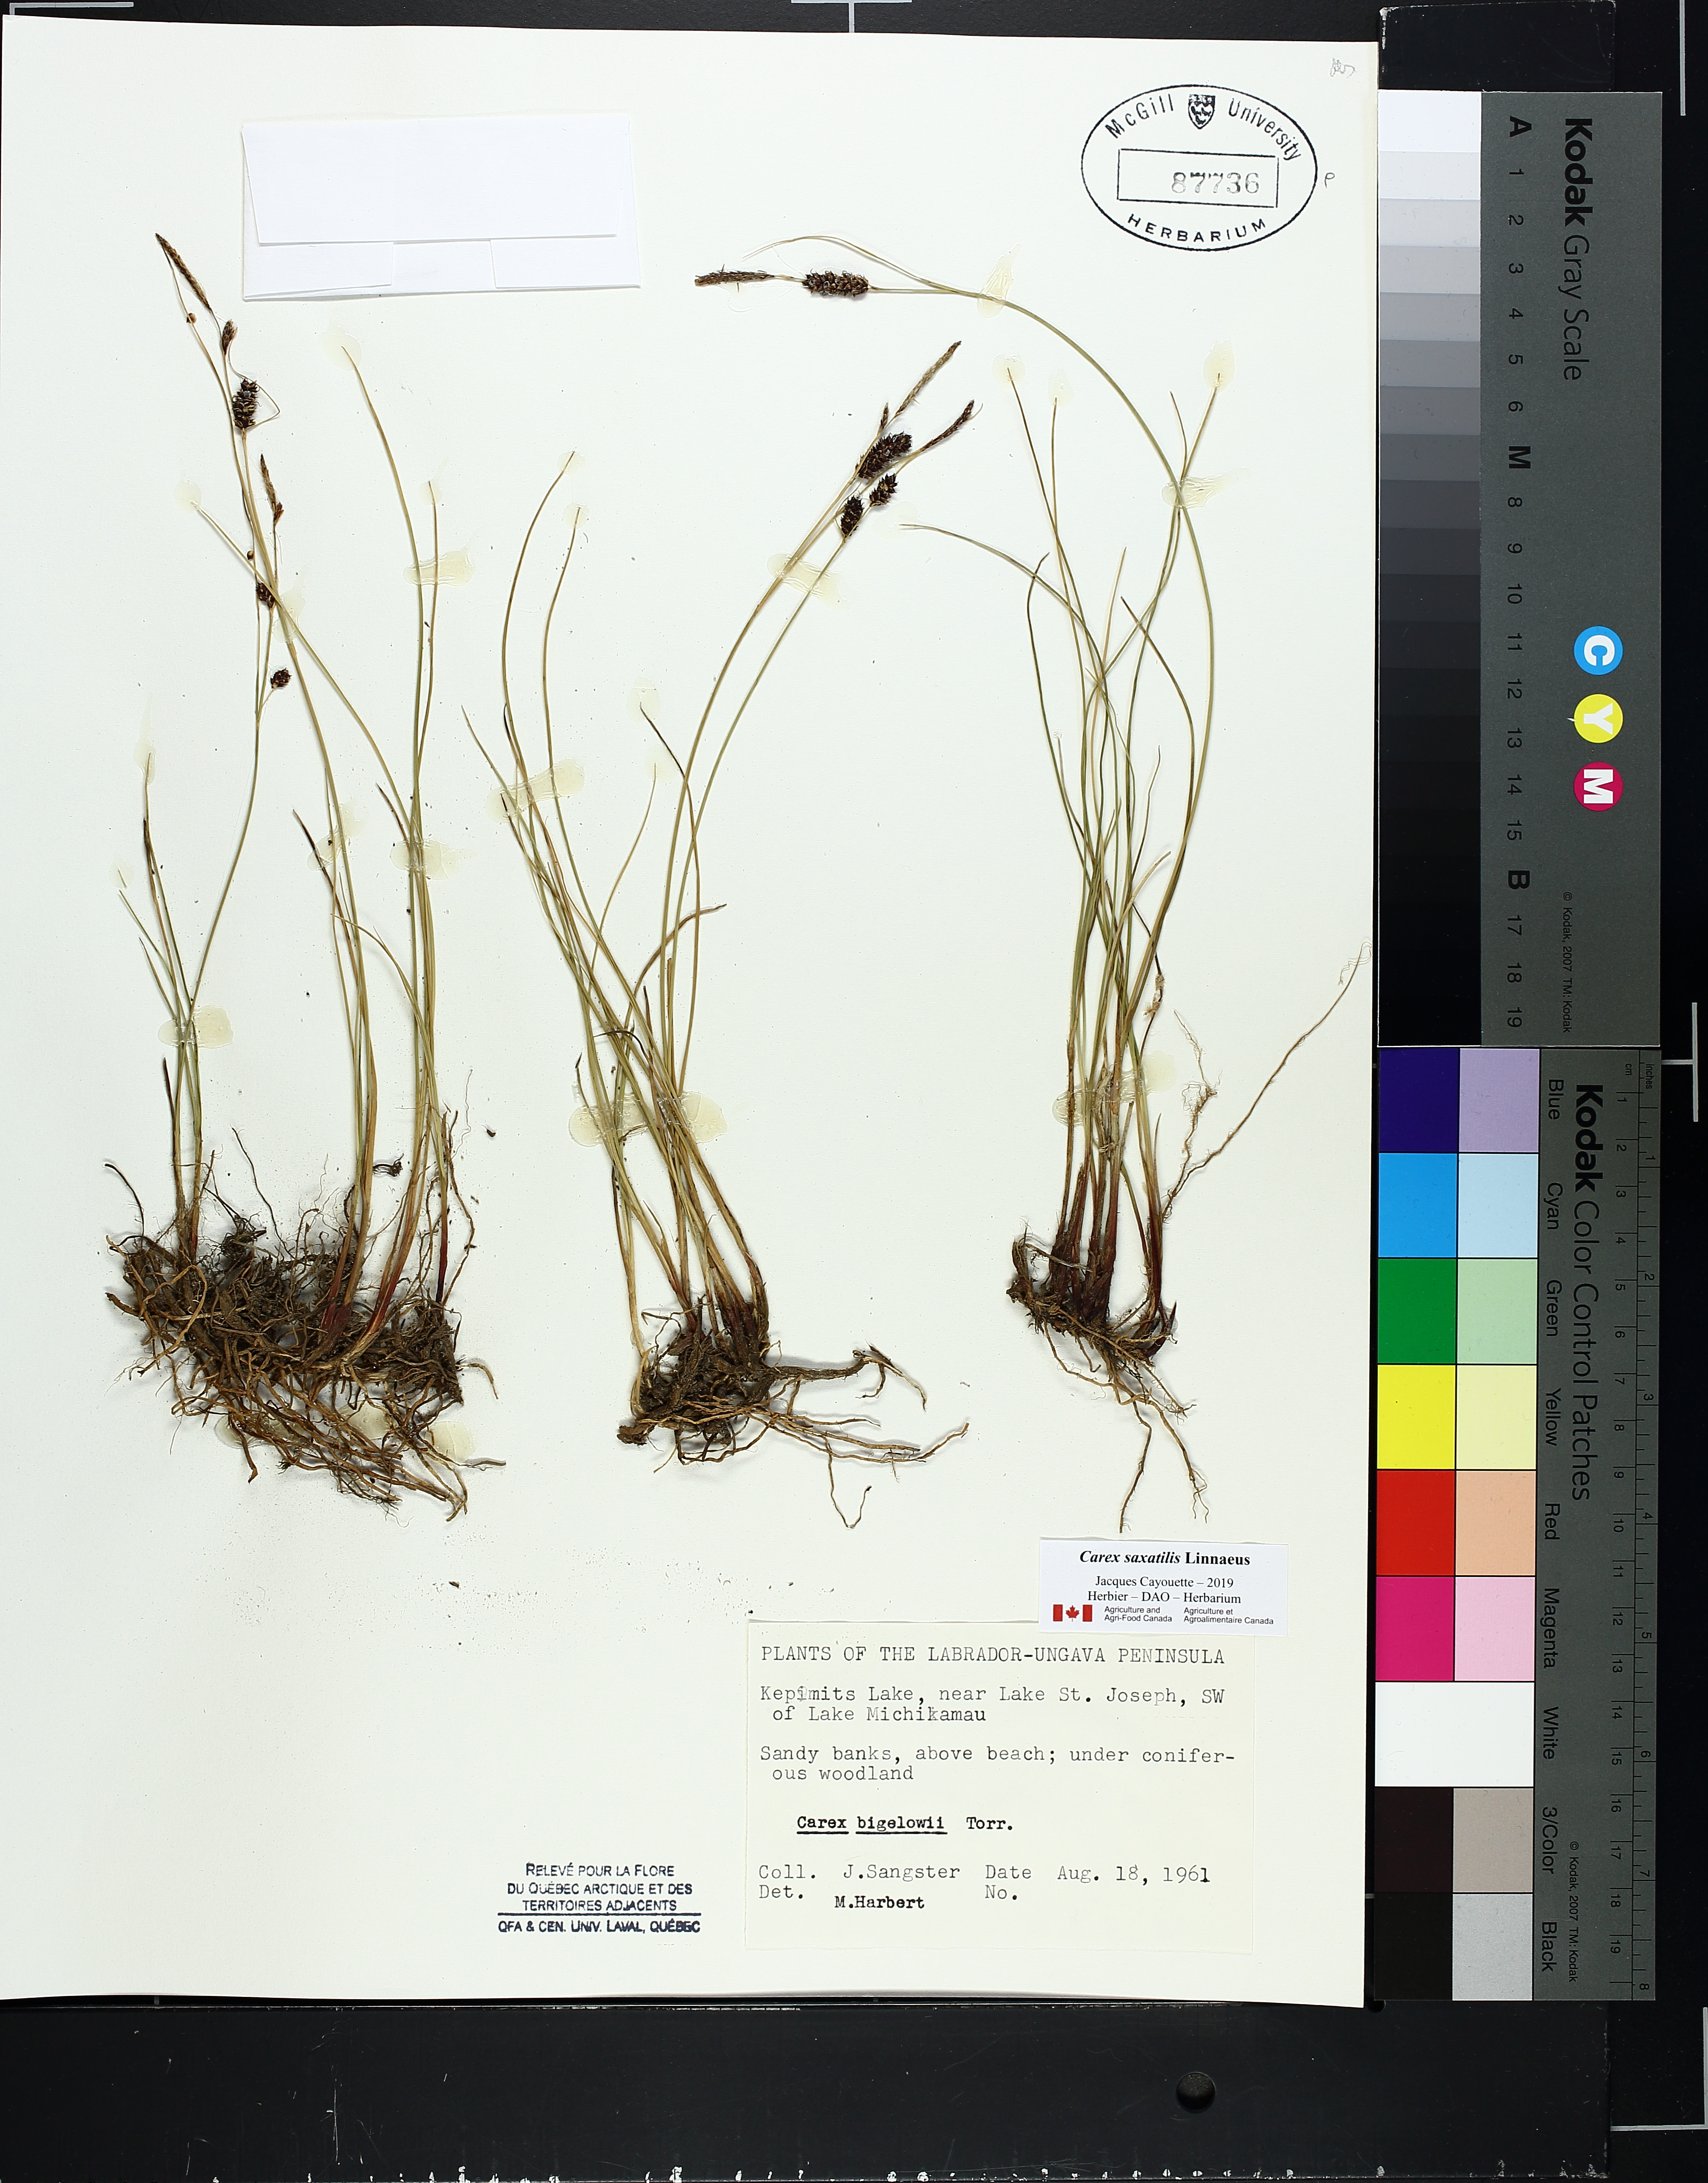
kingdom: Plantae
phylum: Tracheophyta
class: Liliopsida
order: Poales
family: Cyperaceae
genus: Carex
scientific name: Carex bigelowii
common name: Stiff sedge
